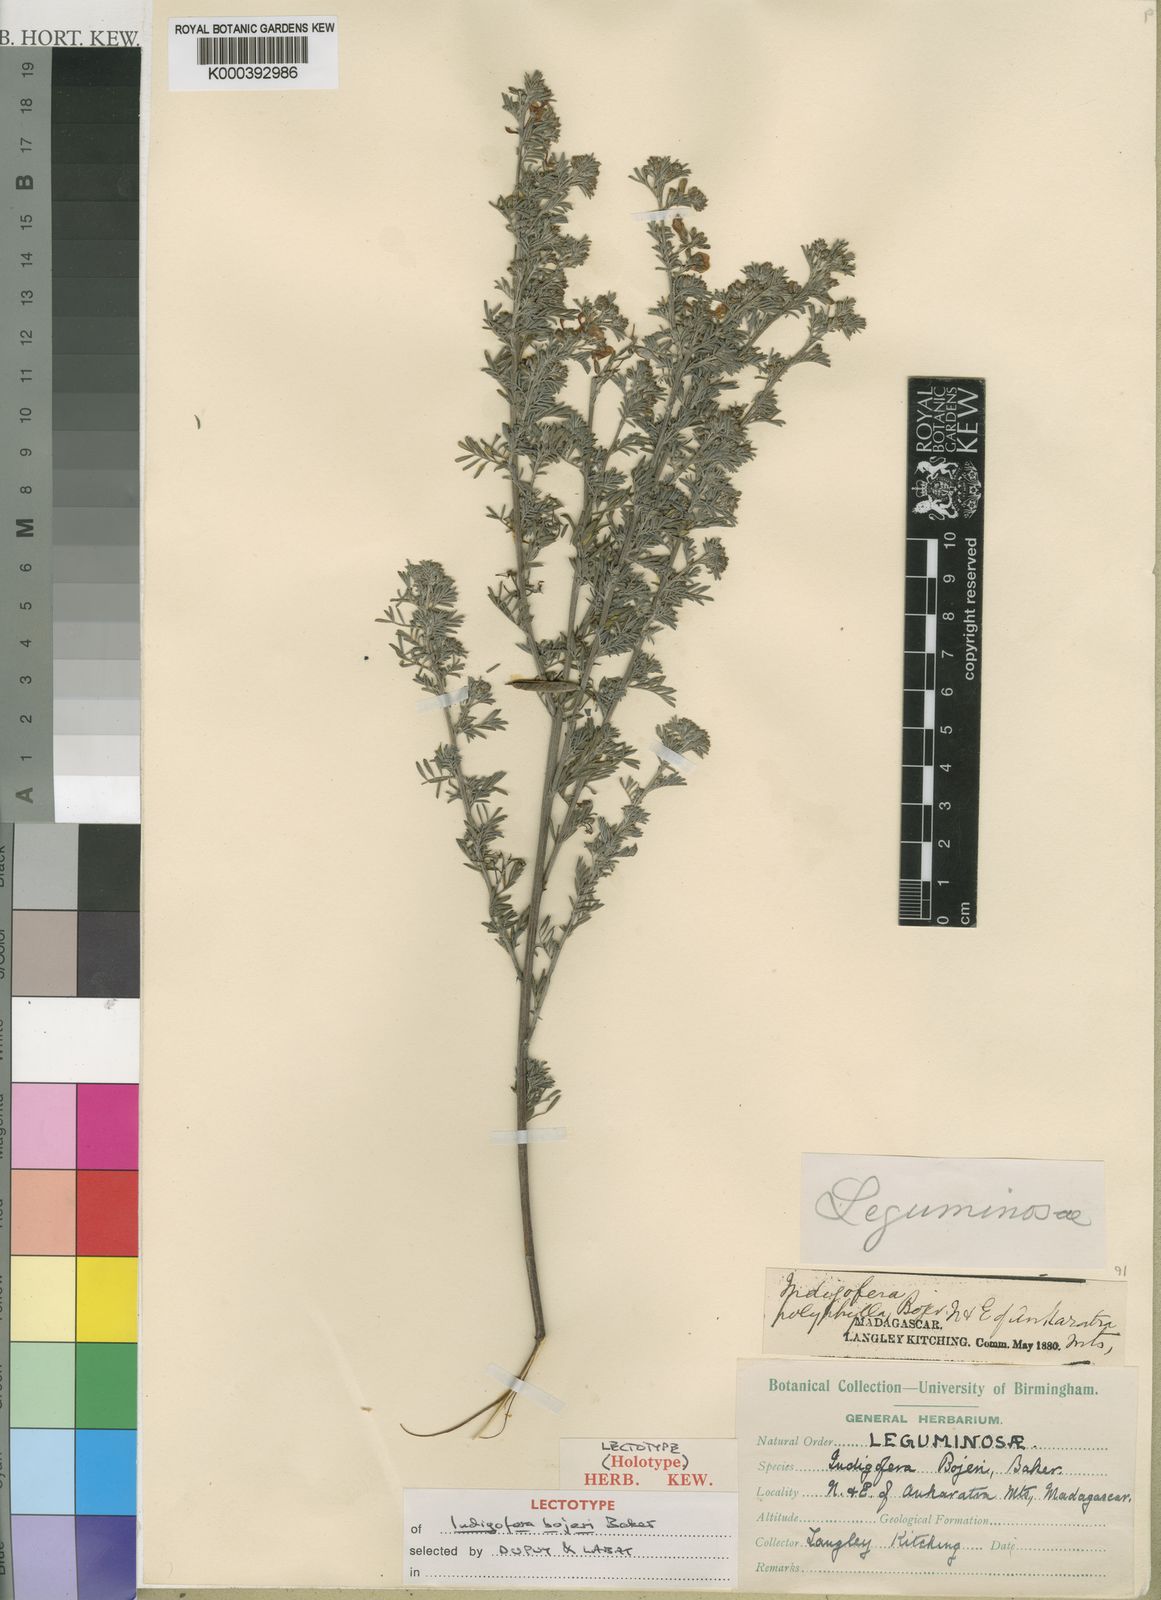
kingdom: Plantae
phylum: Tracheophyta
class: Magnoliopsida
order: Fabales
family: Fabaceae
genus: Indigofera
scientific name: Indigofera bojeri
